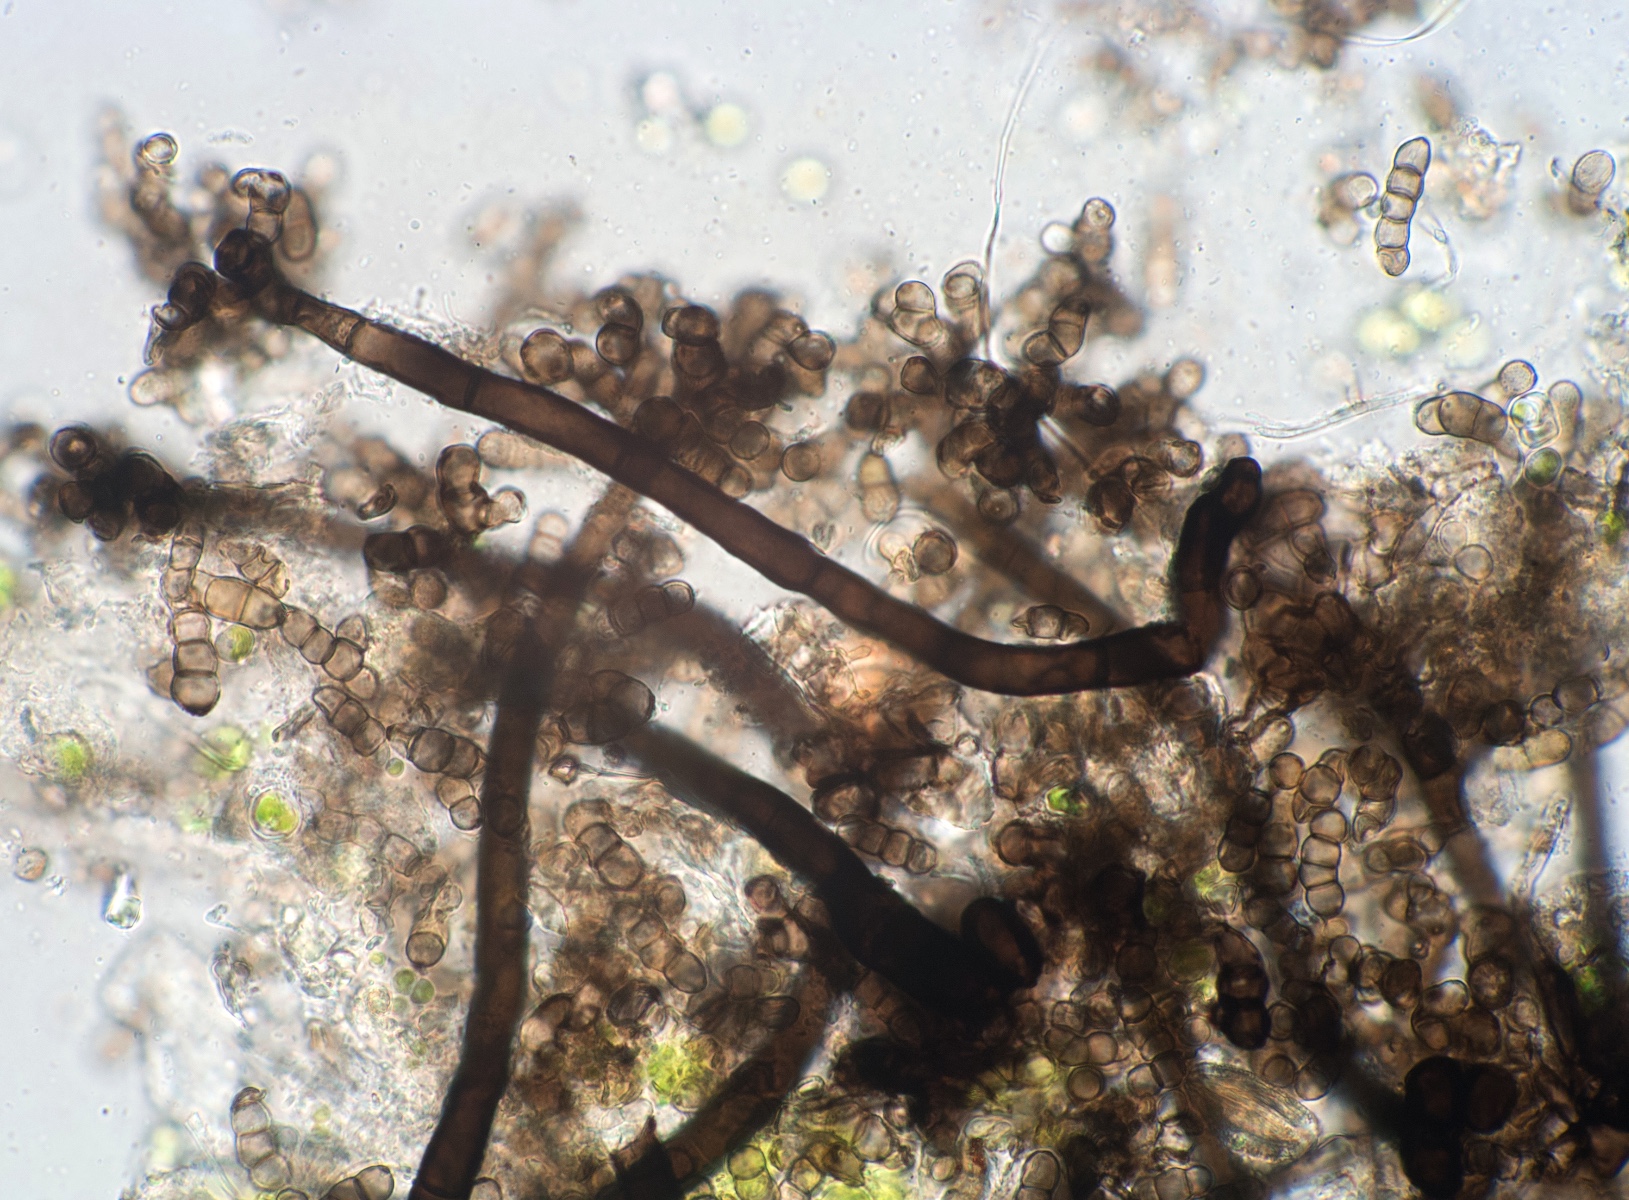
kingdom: Fungi
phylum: Ascomycota
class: Dothideomycetes
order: Pleosporales
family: Torulaceae
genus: Dendryphion
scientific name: Dendryphion comosum
